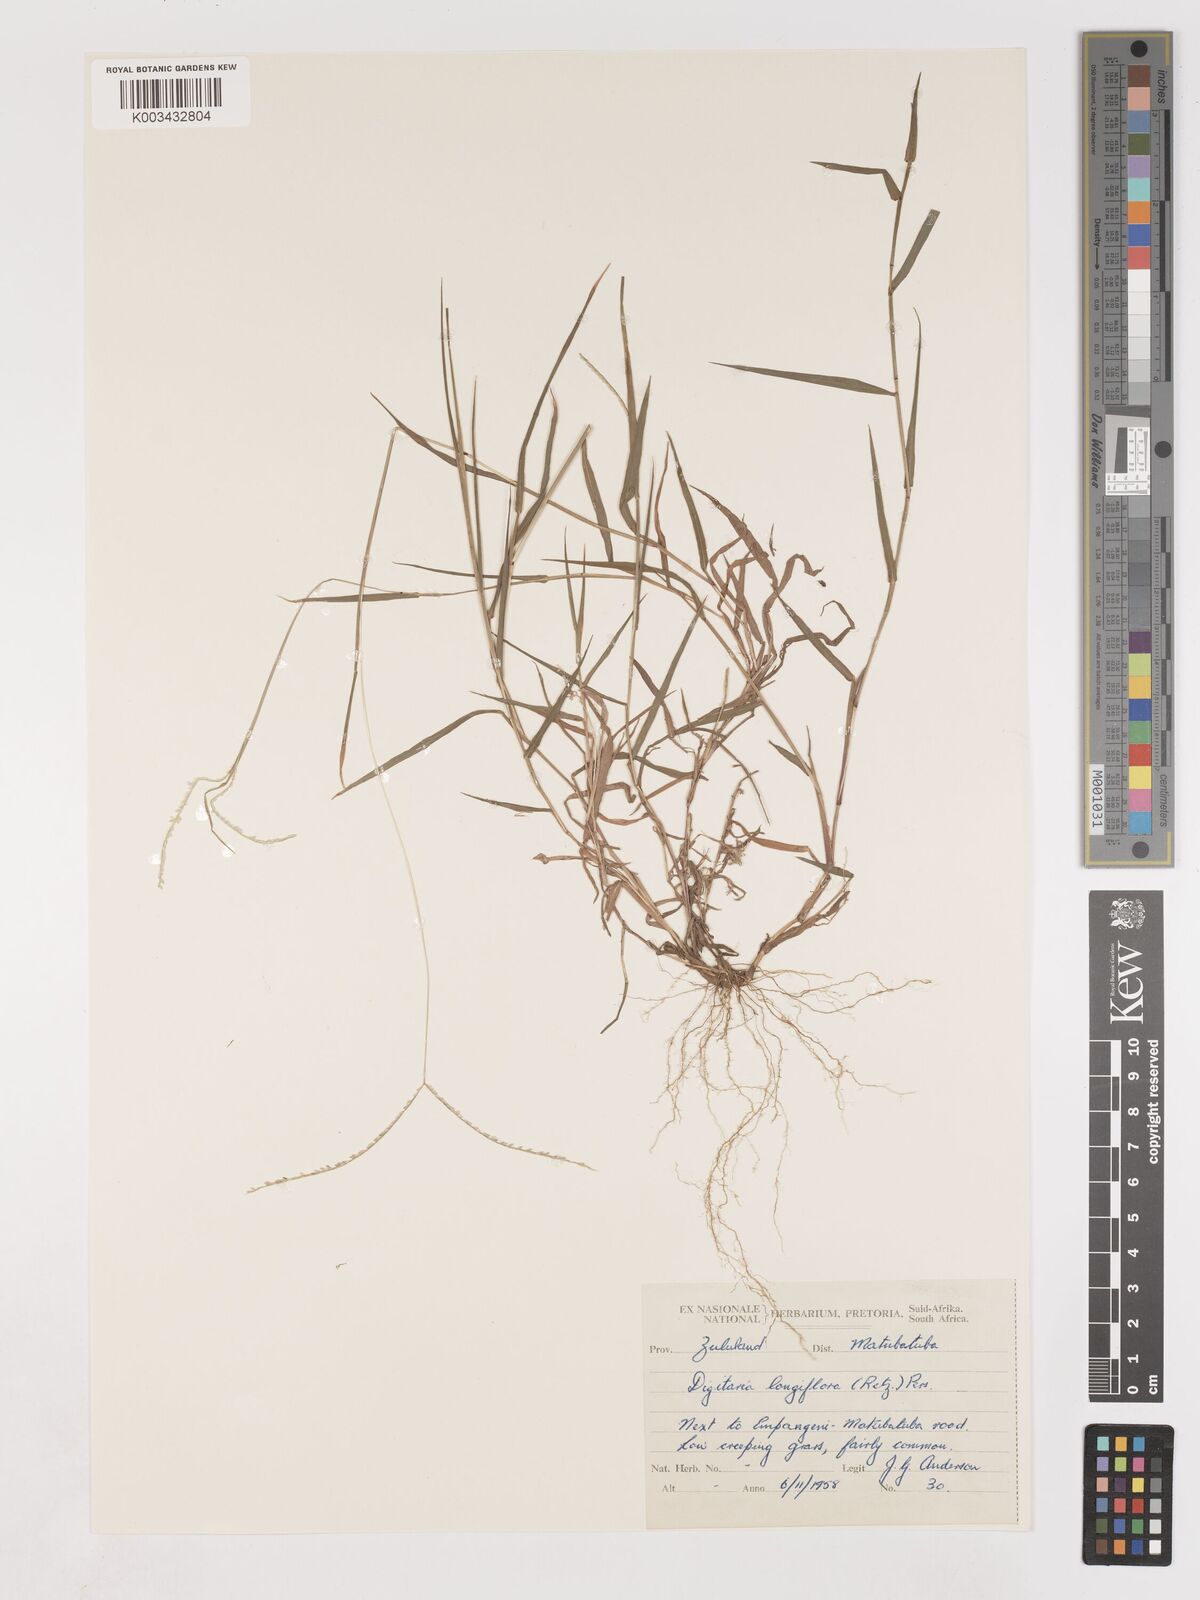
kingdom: Plantae
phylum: Tracheophyta
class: Liliopsida
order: Poales
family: Poaceae
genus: Digitaria
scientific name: Digitaria longiflora
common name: Wire crabgrass
